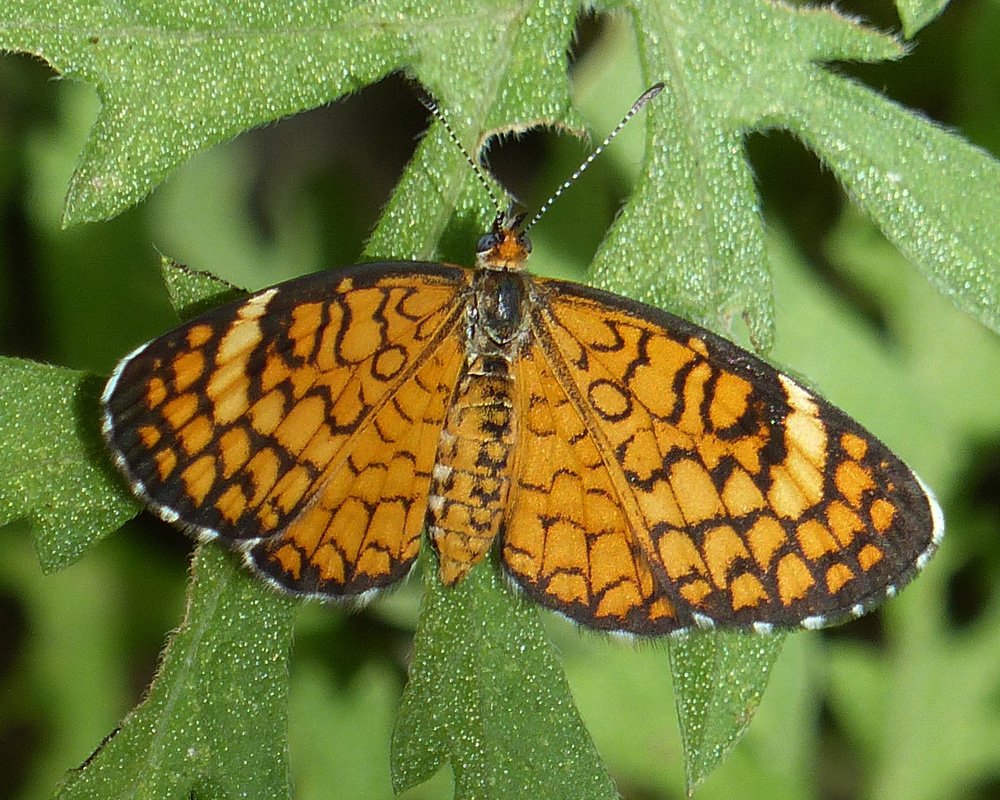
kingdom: Animalia
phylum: Arthropoda
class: Insecta
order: Lepidoptera
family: Nymphalidae
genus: Dymasia
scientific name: Dymasia dymas
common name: Tiny Checkerspot
